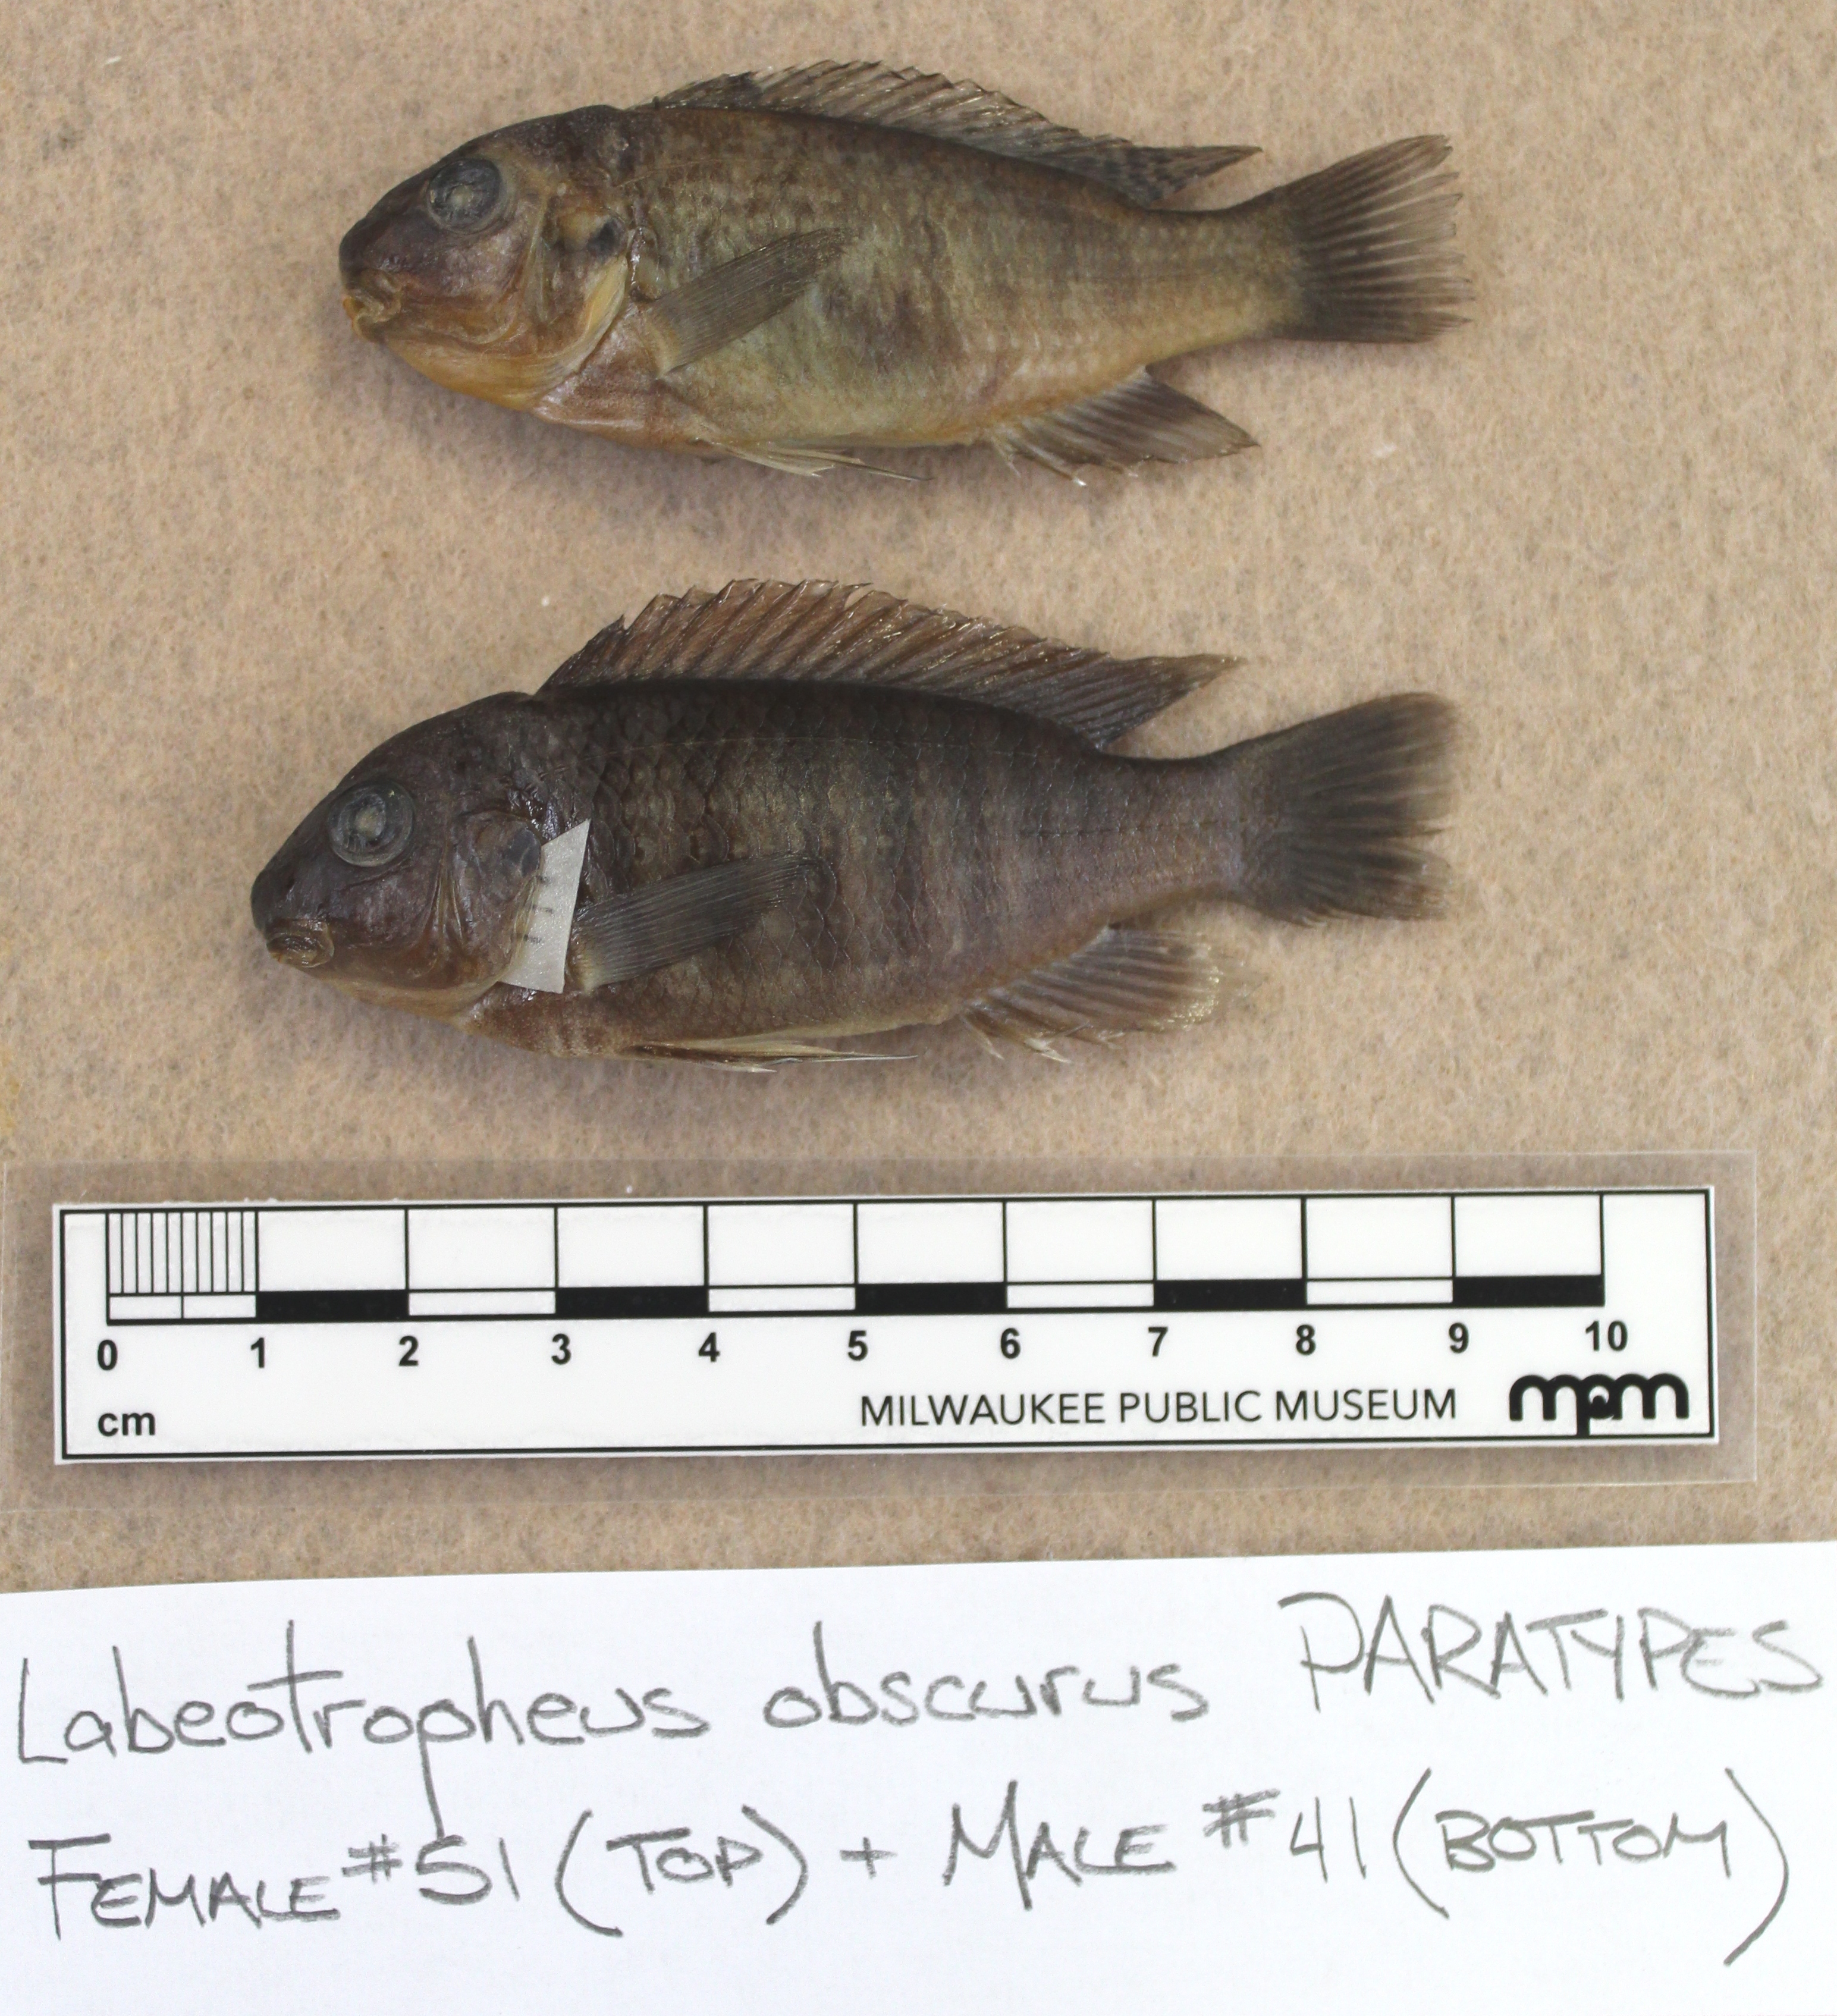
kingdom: Animalia
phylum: Chordata
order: Perciformes
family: Cichlidae
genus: Labeotropheus
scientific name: Labeotropheus
